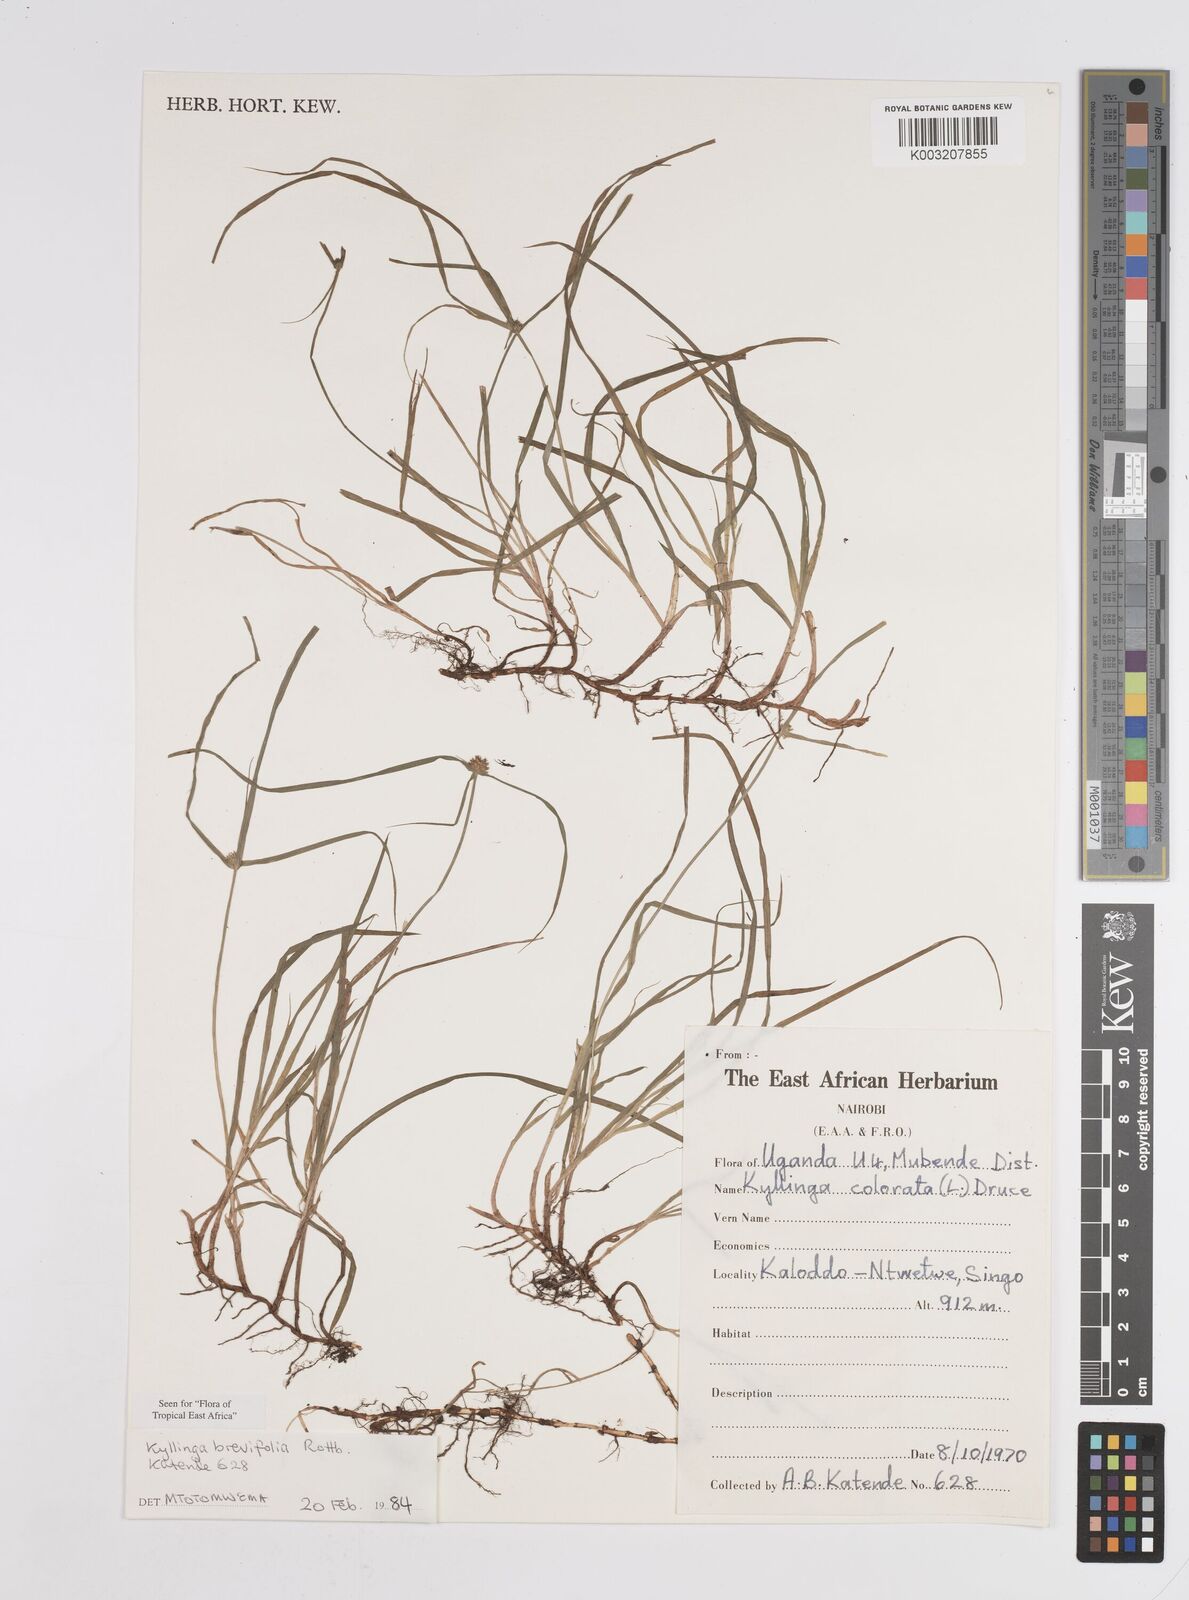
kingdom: Plantae
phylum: Tracheophyta
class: Liliopsida
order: Poales
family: Cyperaceae
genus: Cyperus
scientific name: Cyperus brevifolius
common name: Globe kyllinga
